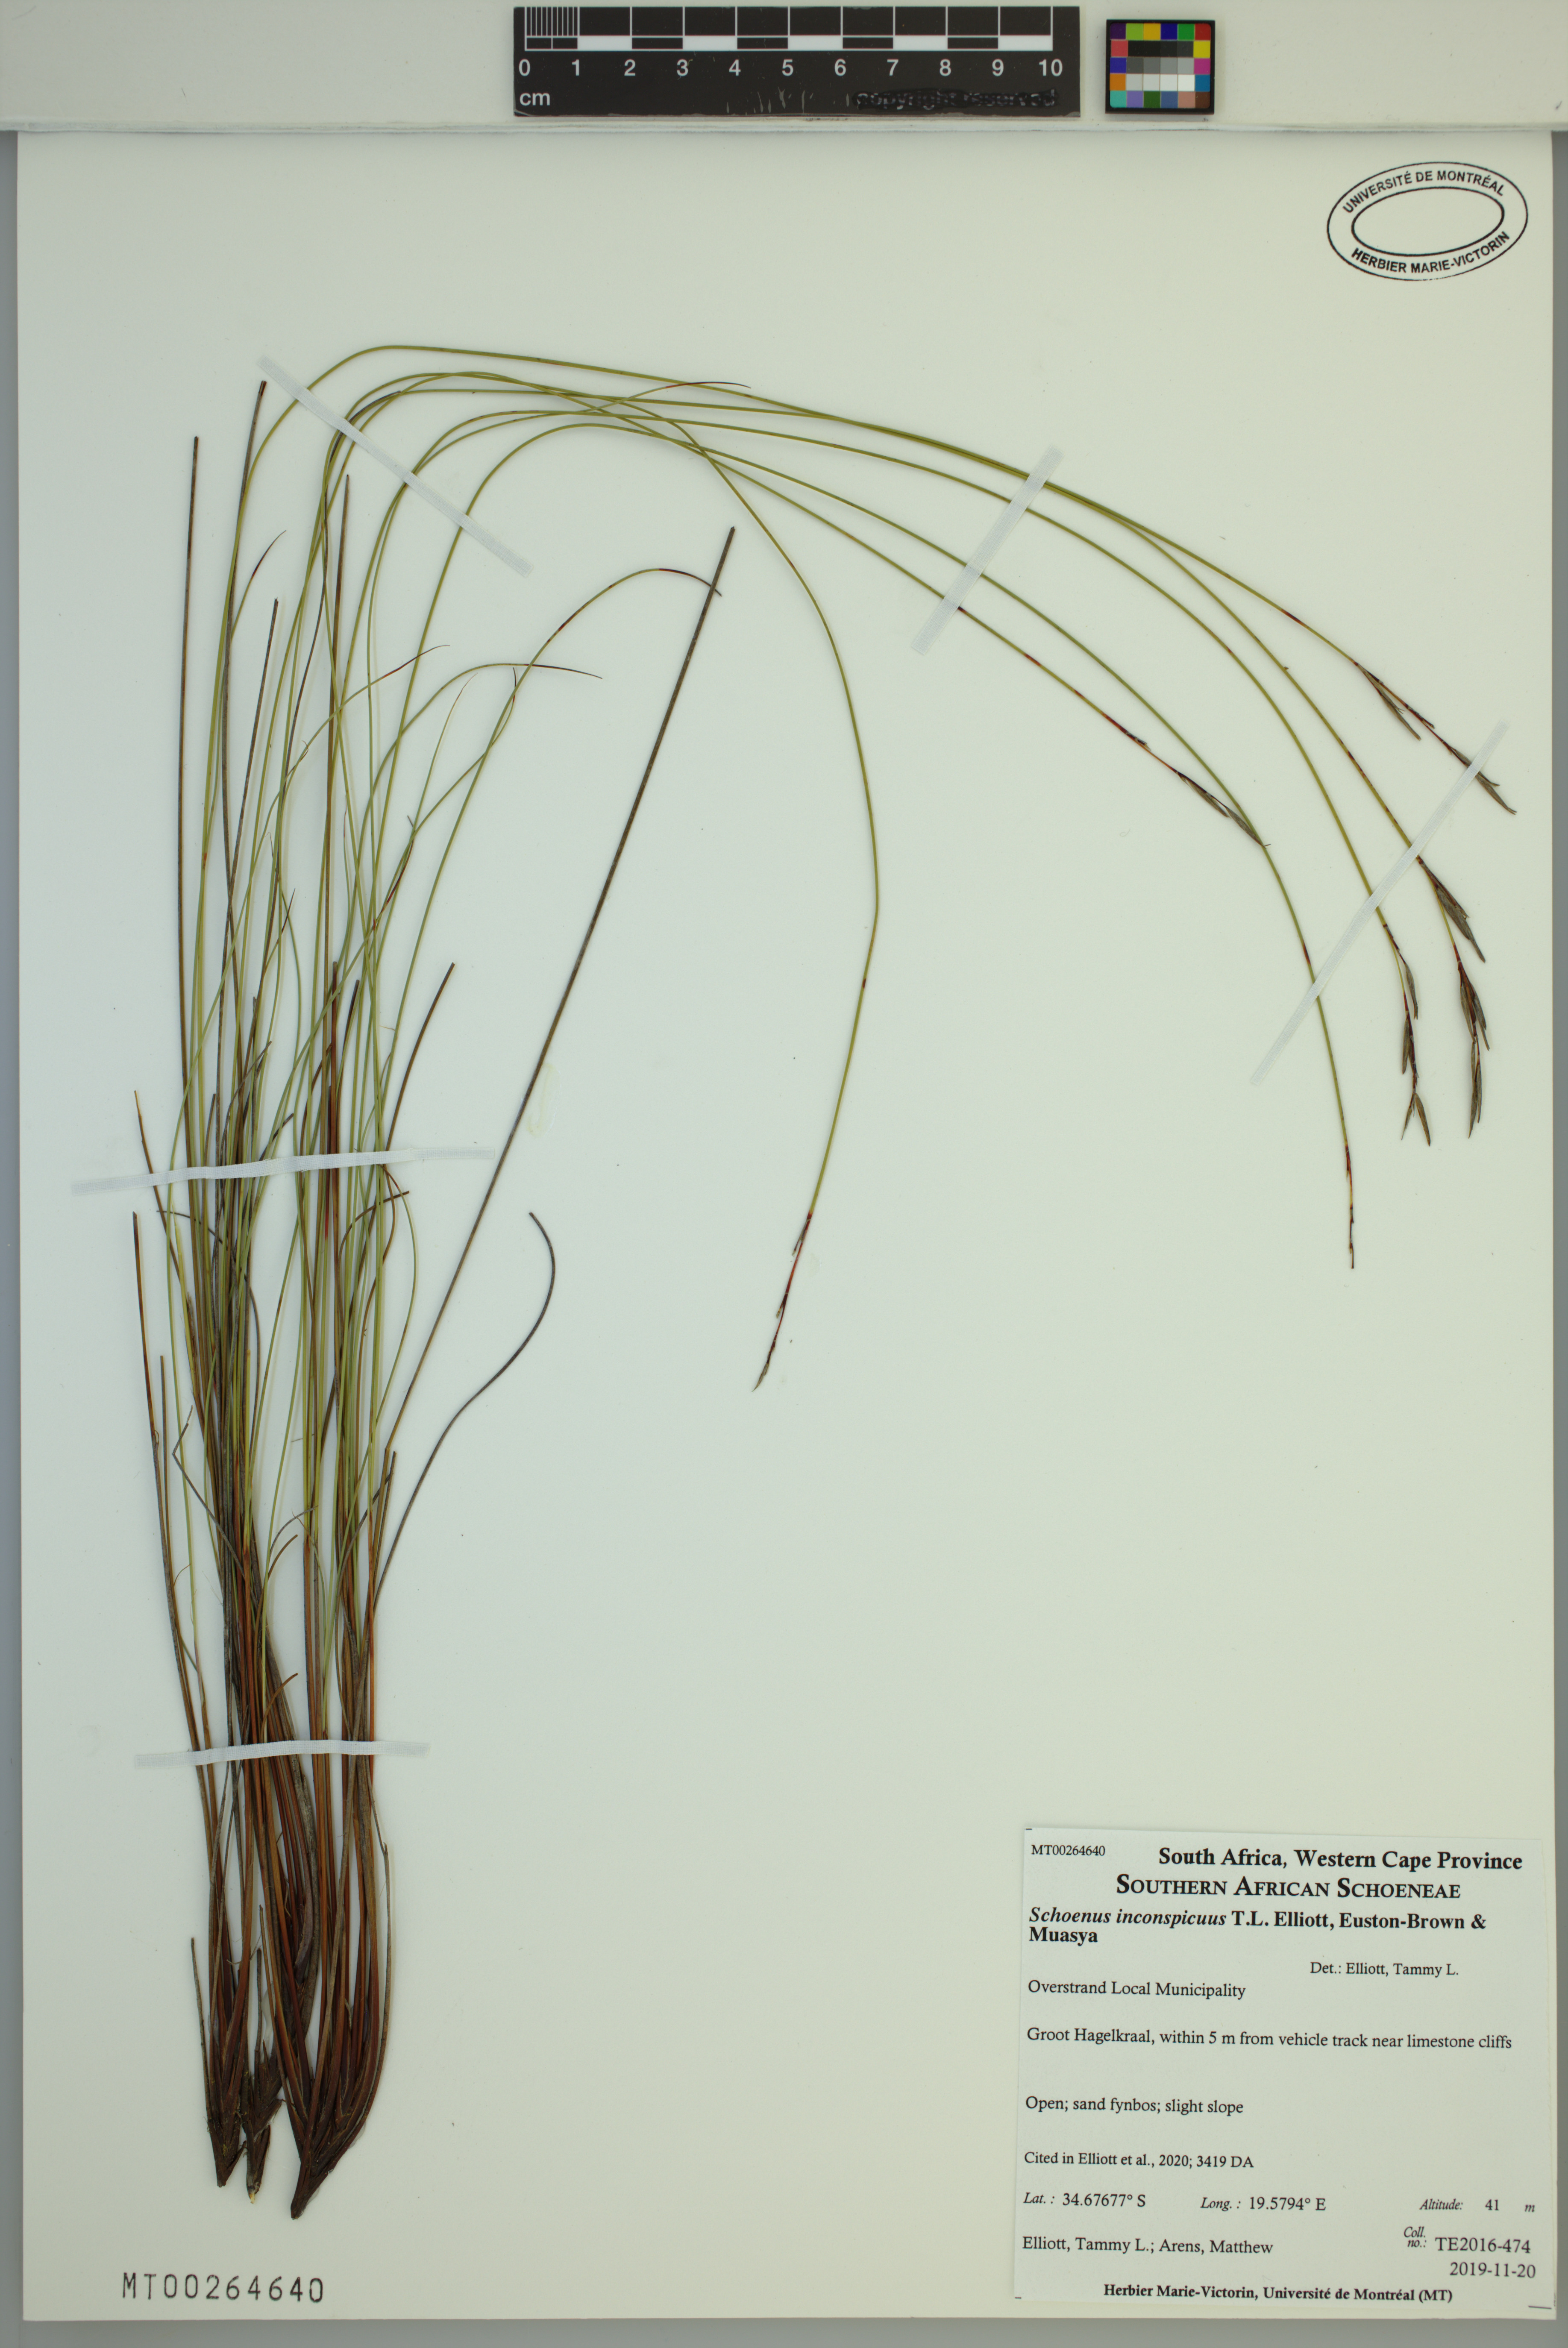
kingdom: Plantae
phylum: Tracheophyta
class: Liliopsida
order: Poales
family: Cyperaceae
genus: Schoenus
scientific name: Schoenus inconspicuus
